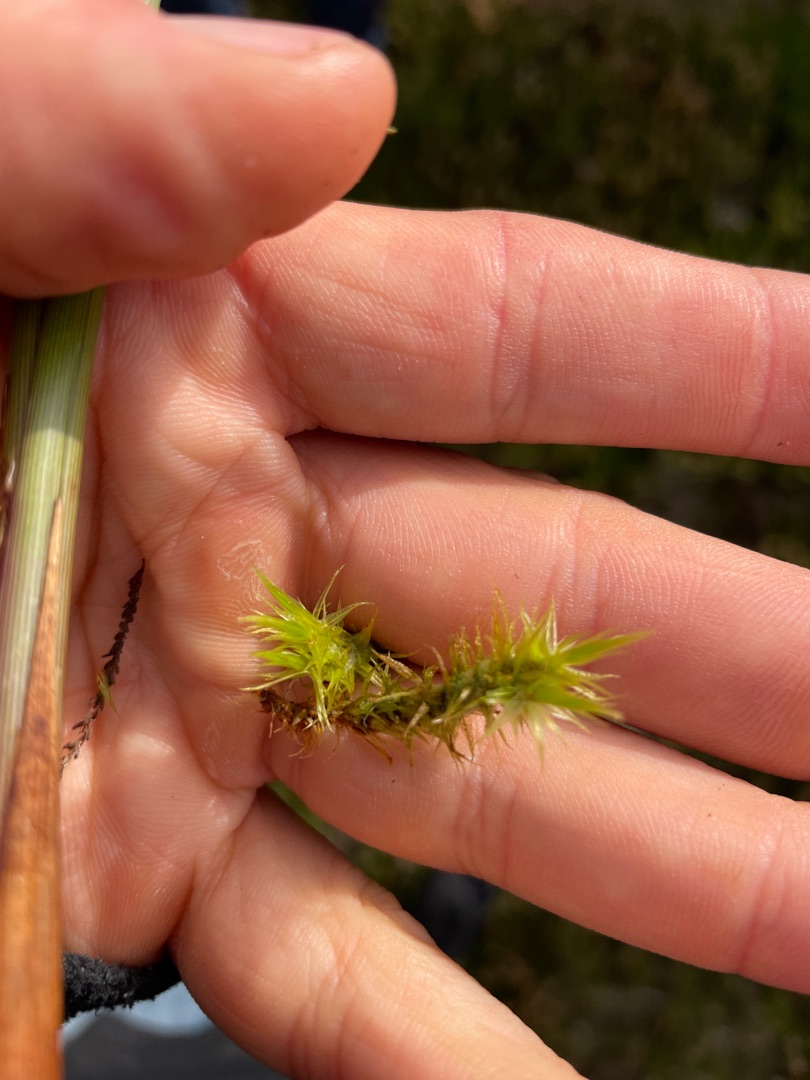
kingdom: Plantae
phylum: Bryophyta
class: Bryopsida
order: Dicranales
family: Dicranaceae
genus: Dicranum
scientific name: Dicranum
